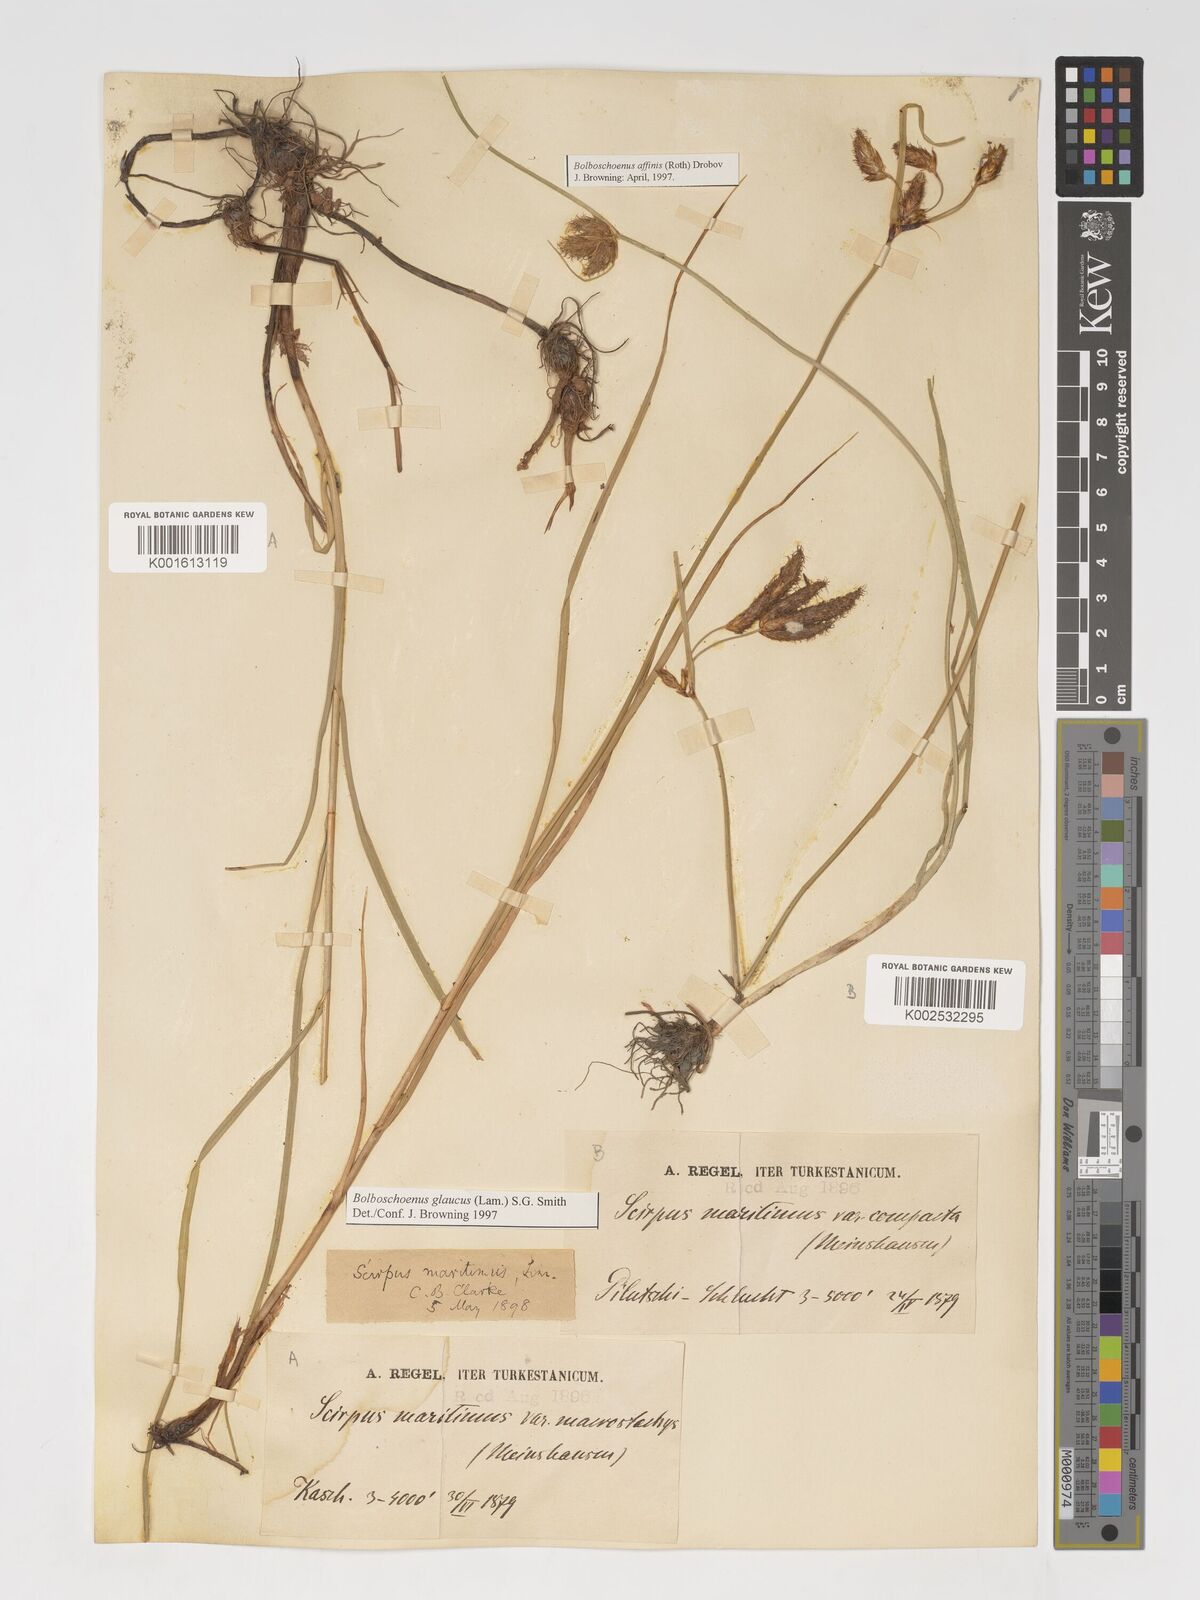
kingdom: Plantae
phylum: Tracheophyta
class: Liliopsida
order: Poales
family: Cyperaceae
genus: Bolboschoenus
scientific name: Bolboschoenus maritimus
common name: Sea club-rush
